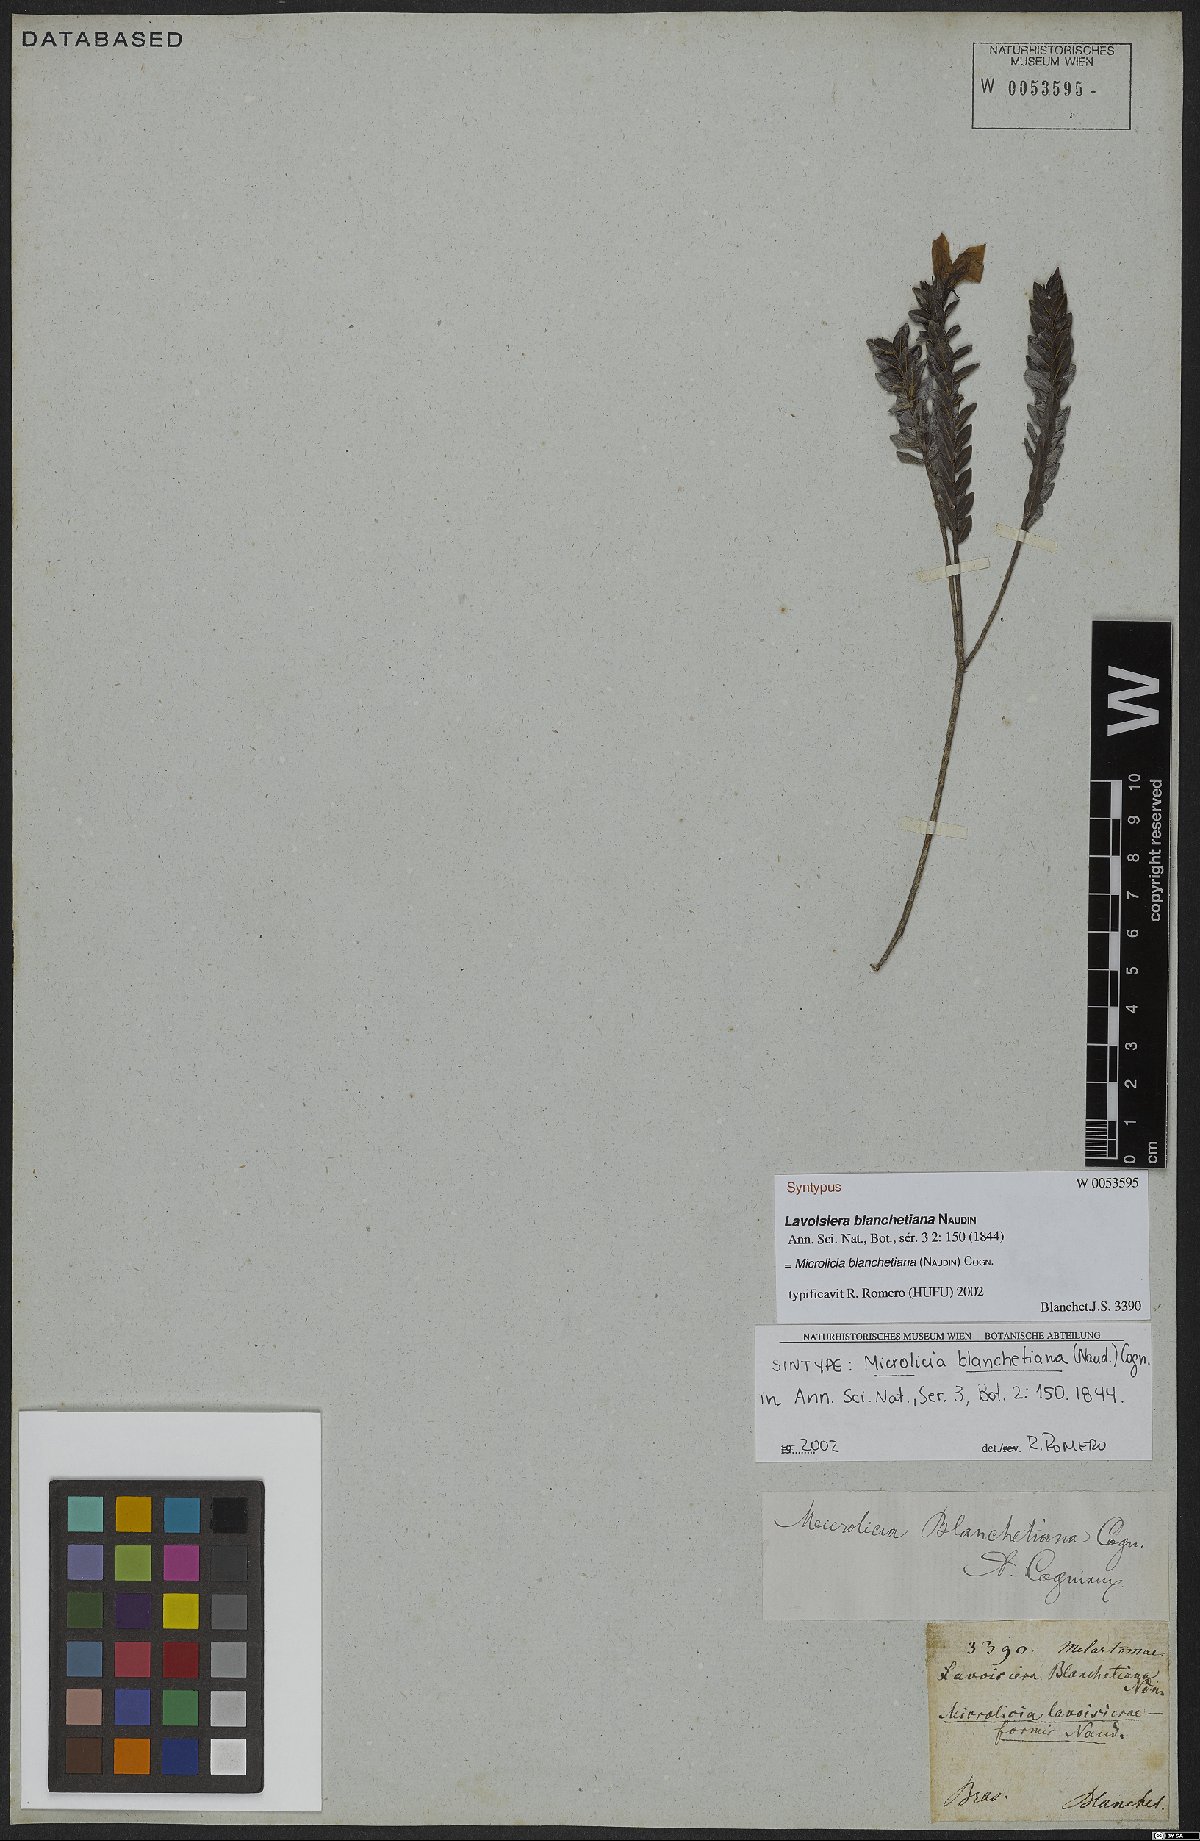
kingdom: Plantae
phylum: Tracheophyta
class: Magnoliopsida
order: Myrtales
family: Melastomataceae
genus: Microlicia
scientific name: Microlicia blanchetiana
